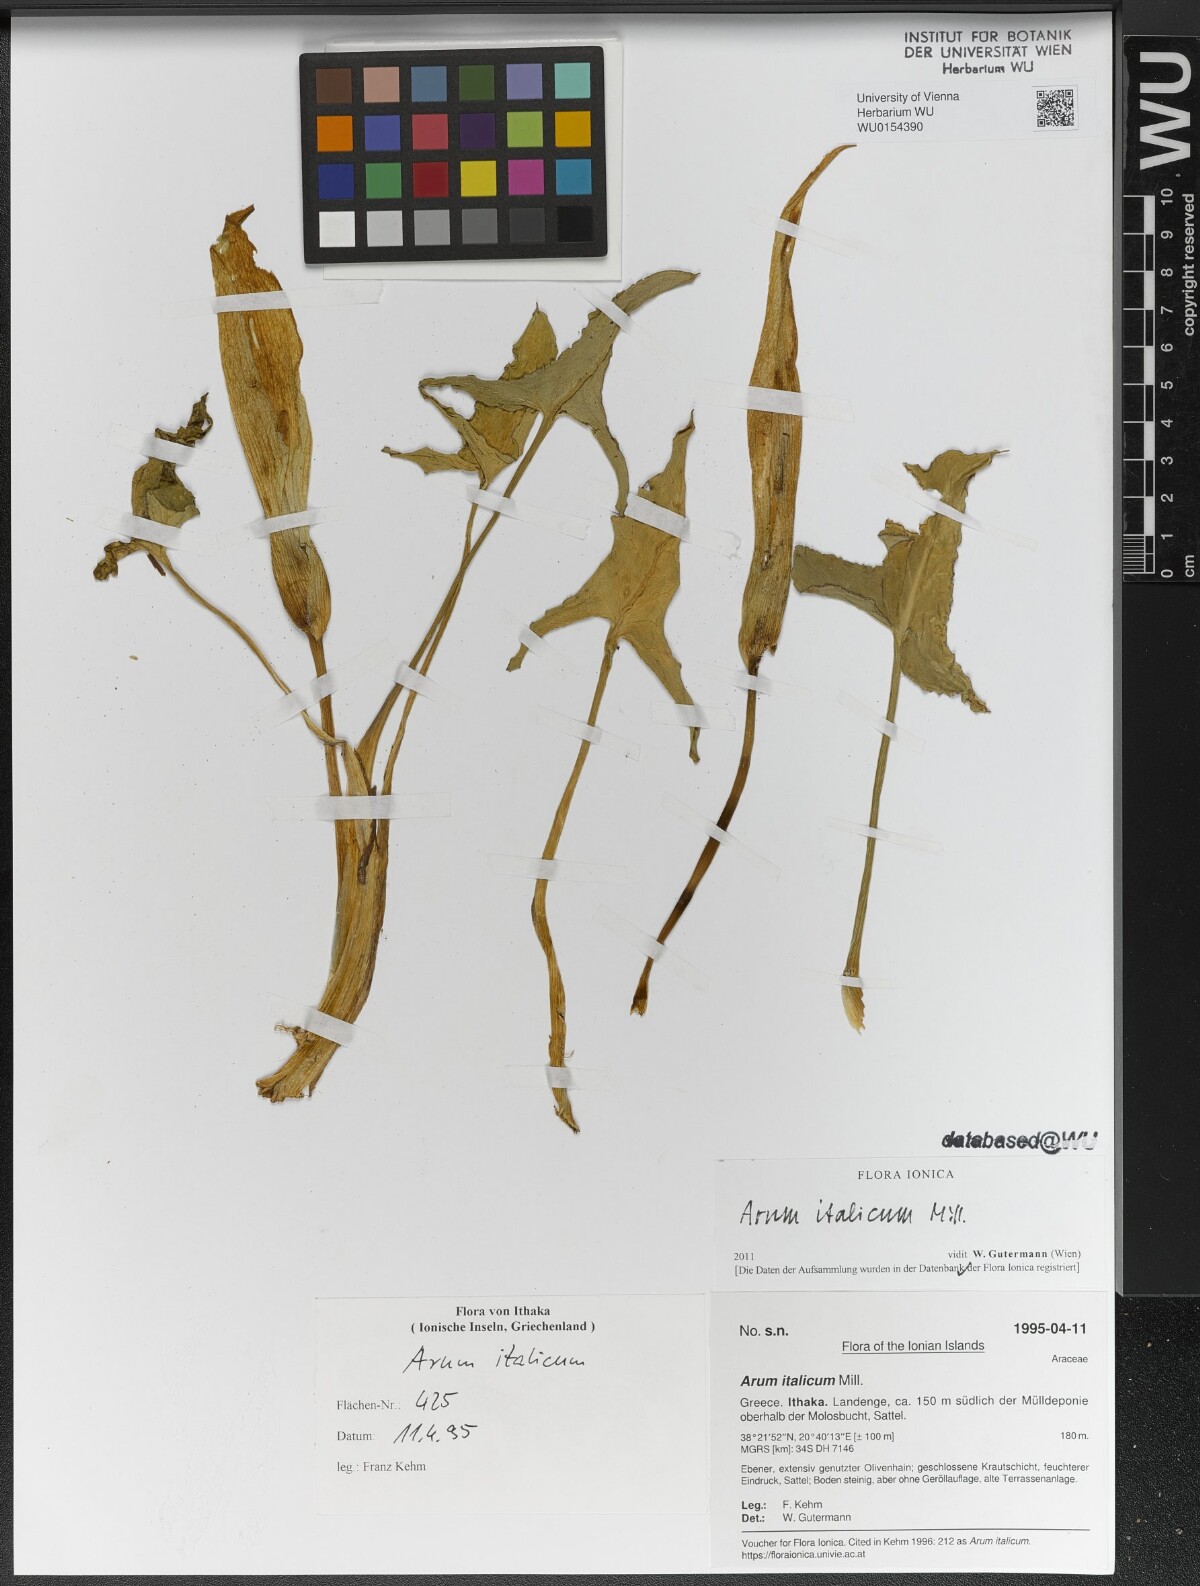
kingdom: Plantae
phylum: Tracheophyta
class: Liliopsida
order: Alismatales
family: Araceae
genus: Arum
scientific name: Arum italicum
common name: Italian lords-and-ladies
